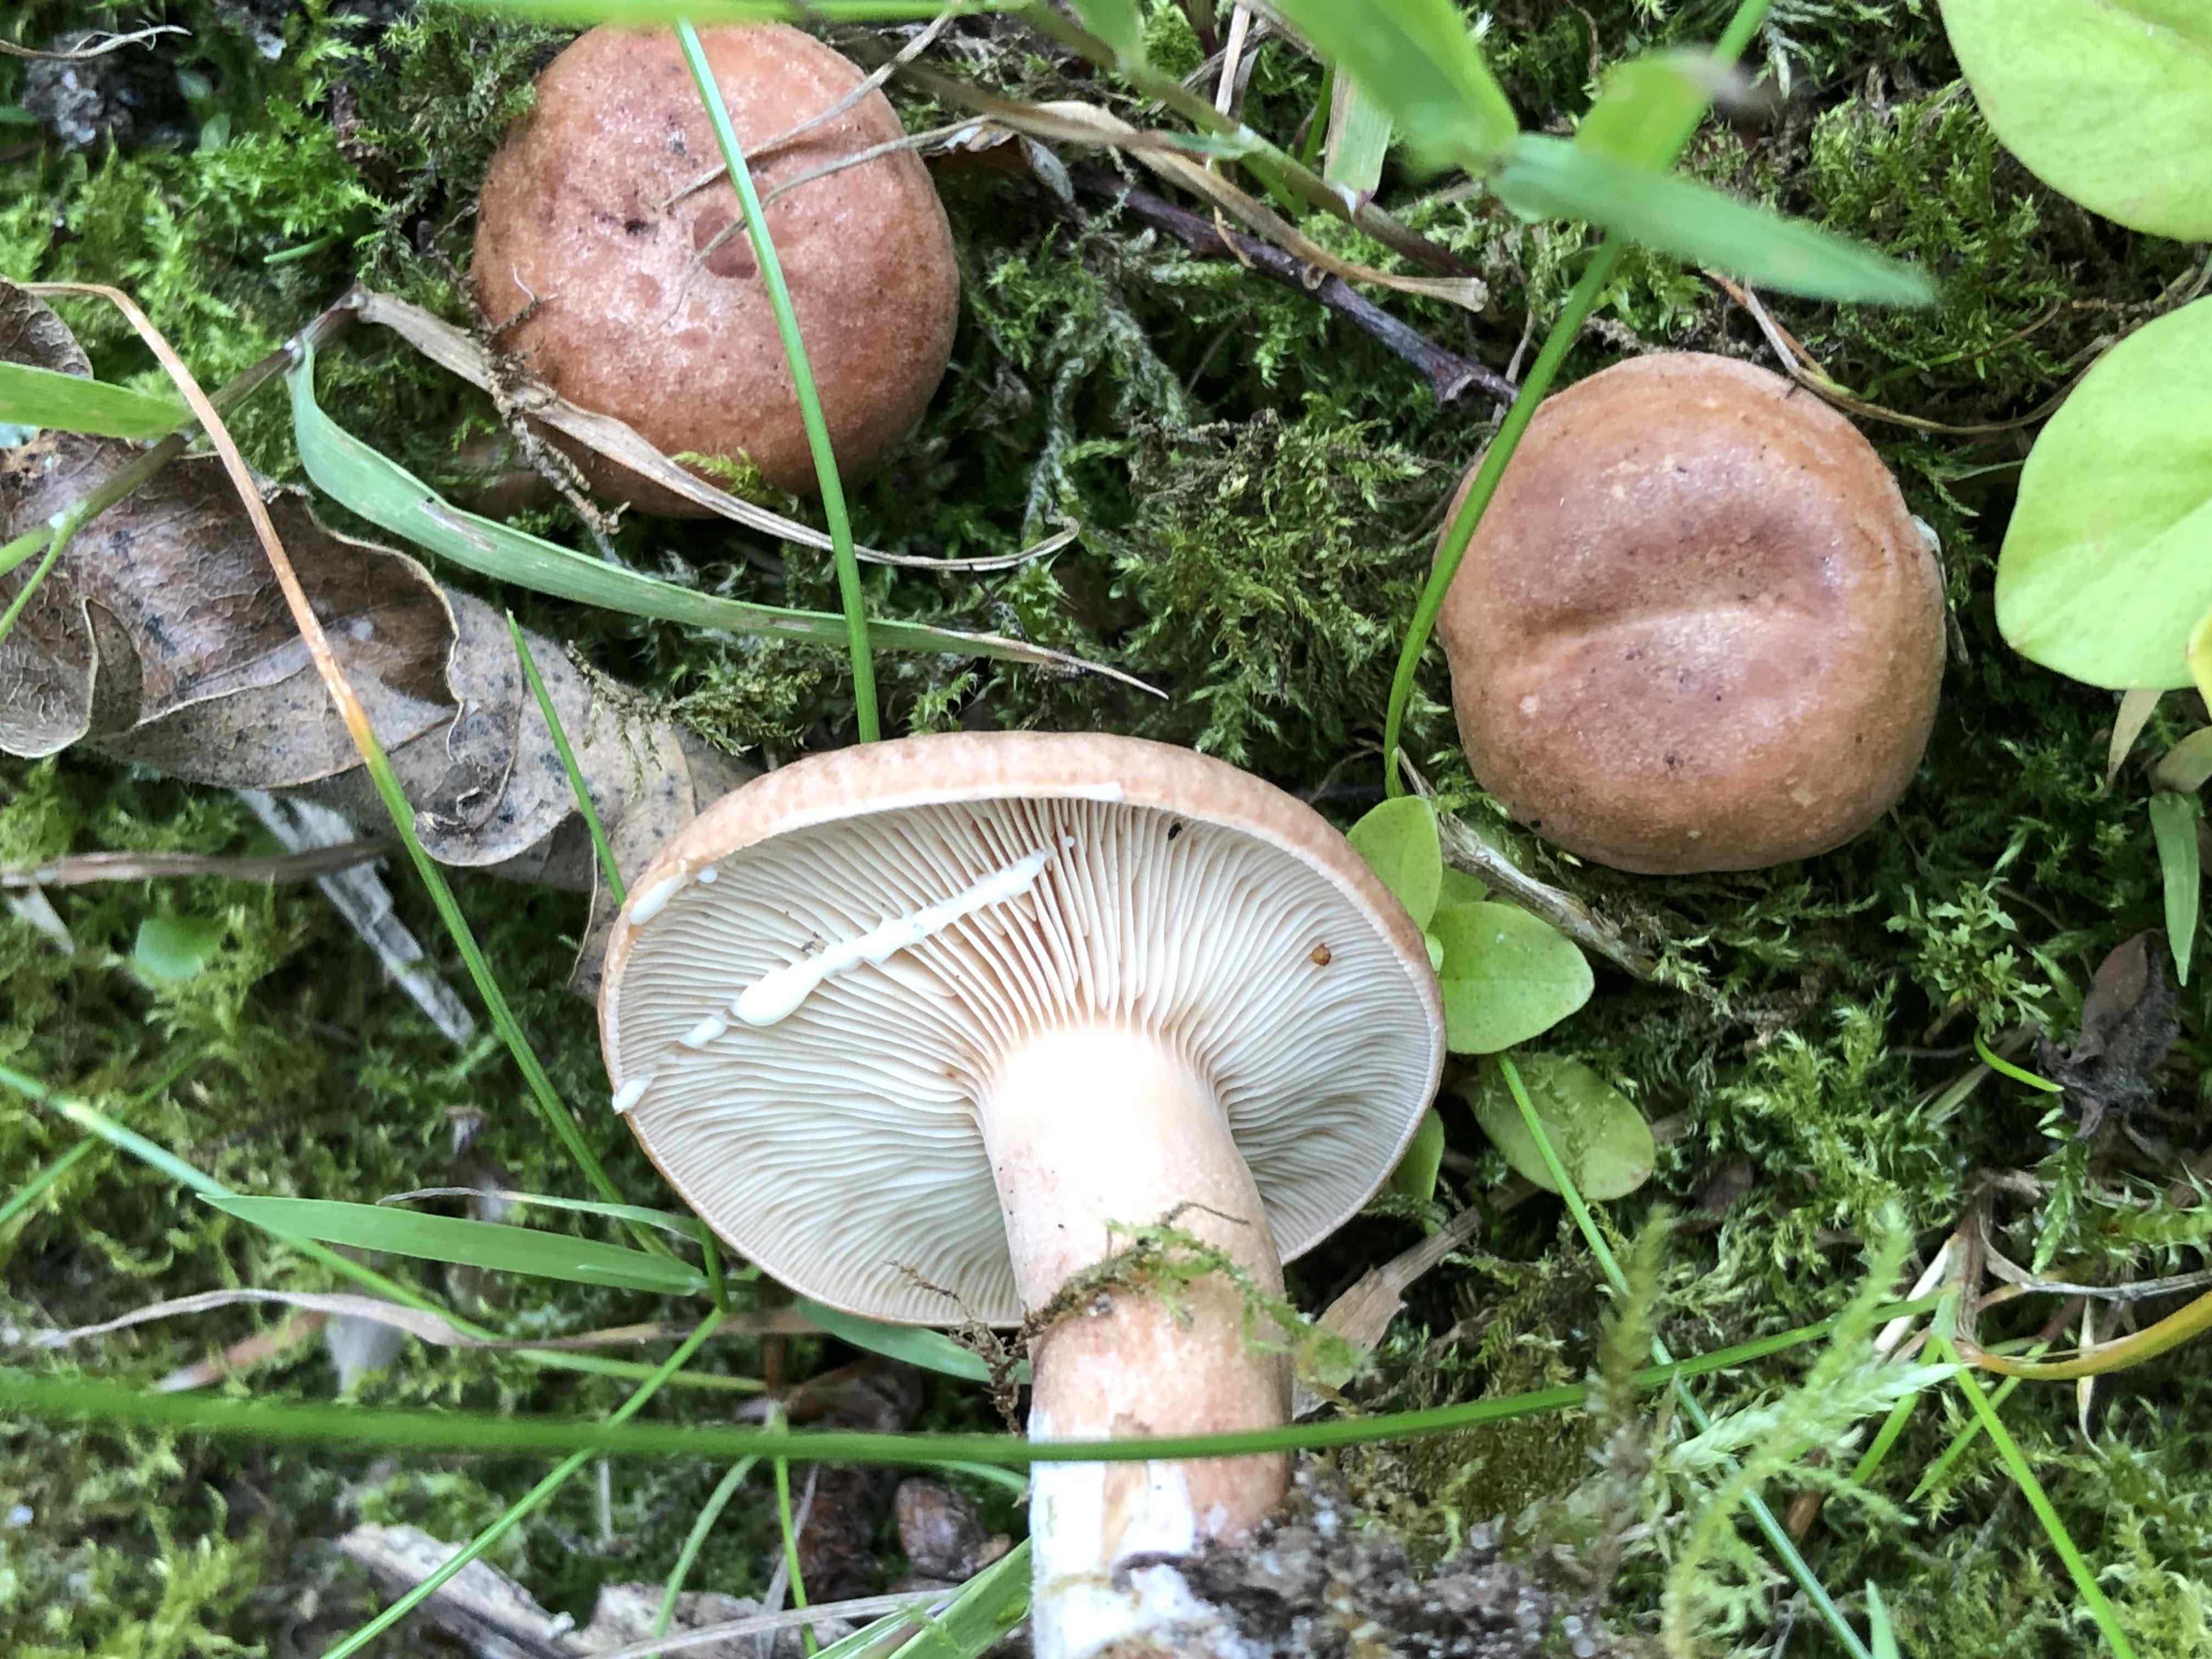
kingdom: Fungi
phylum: Basidiomycota
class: Agaricomycetes
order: Russulales
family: Russulaceae
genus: Lactarius
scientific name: Lactarius quietus
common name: ege-mælkehat
